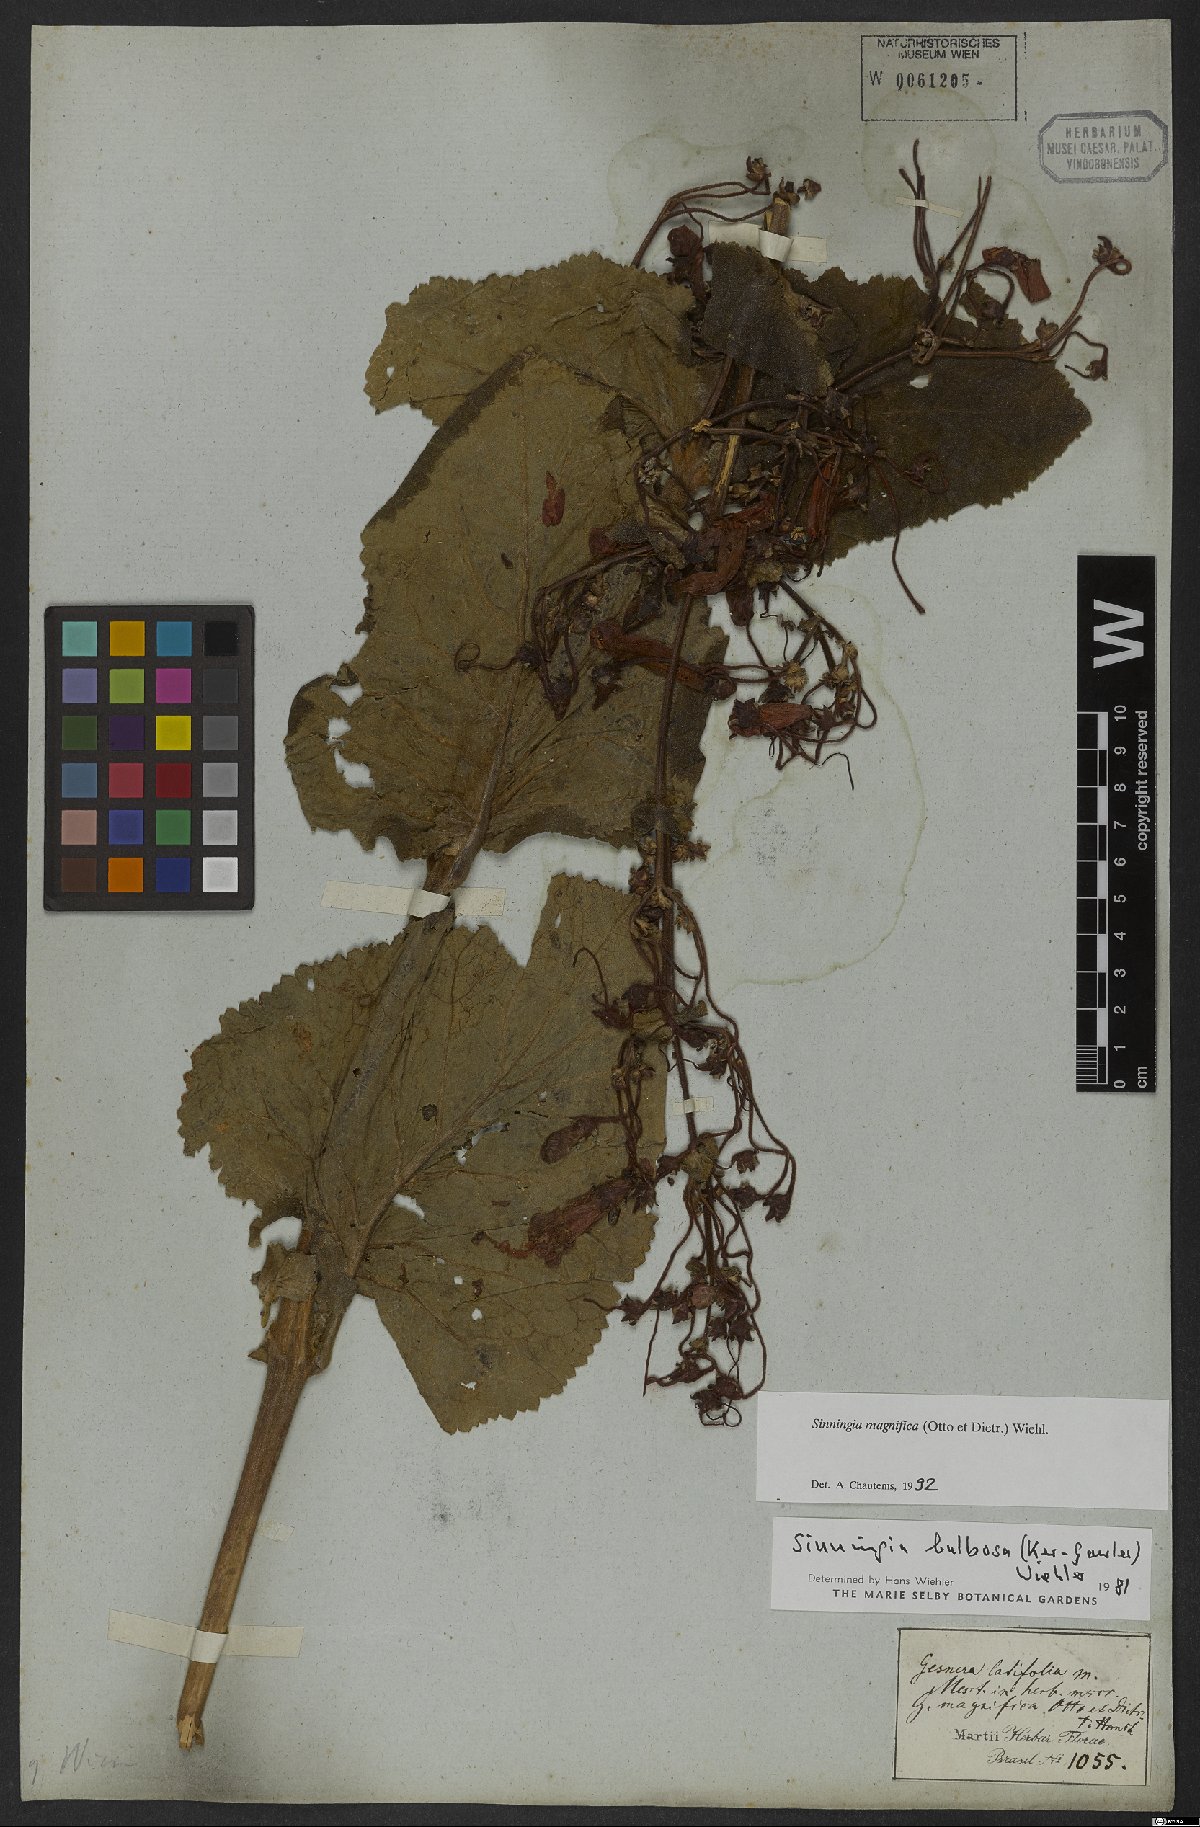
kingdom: Plantae
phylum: Tracheophyta
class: Magnoliopsida
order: Lamiales
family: Gesneriaceae
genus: Sinningia
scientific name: Sinningia magnifica
